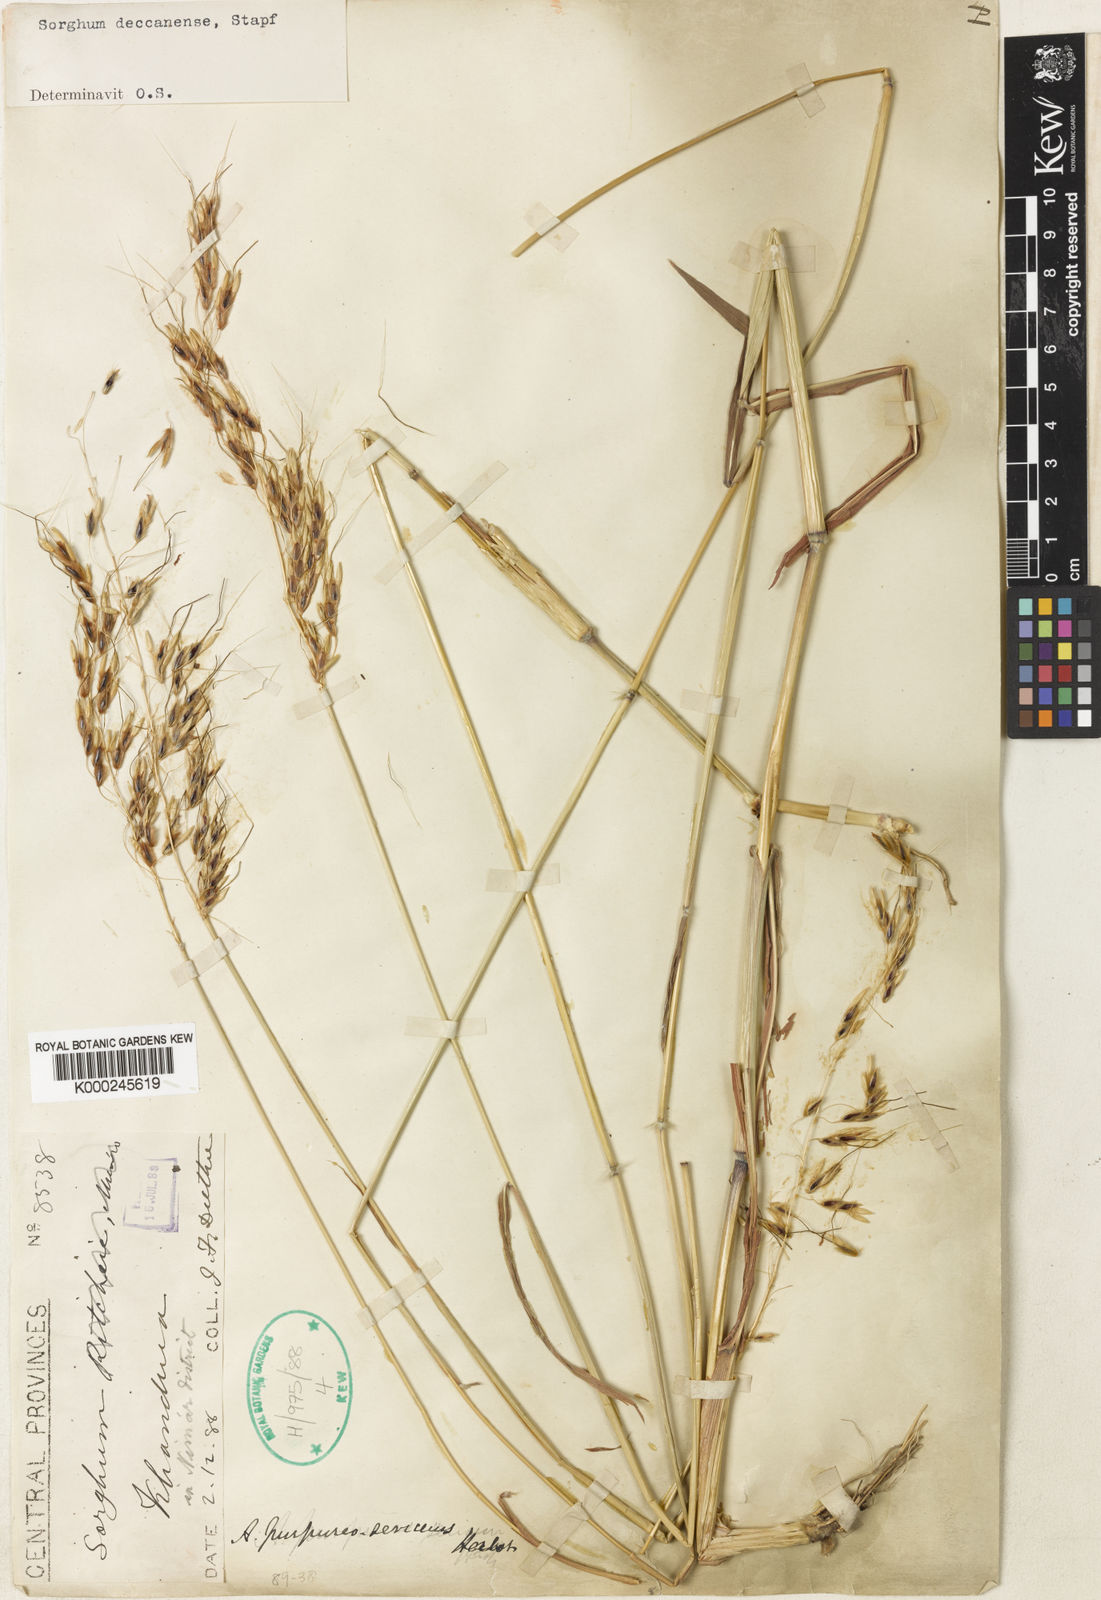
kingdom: Plantae
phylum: Tracheophyta
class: Liliopsida
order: Poales
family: Poaceae
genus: Sarga
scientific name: Sarga purpureosericea
